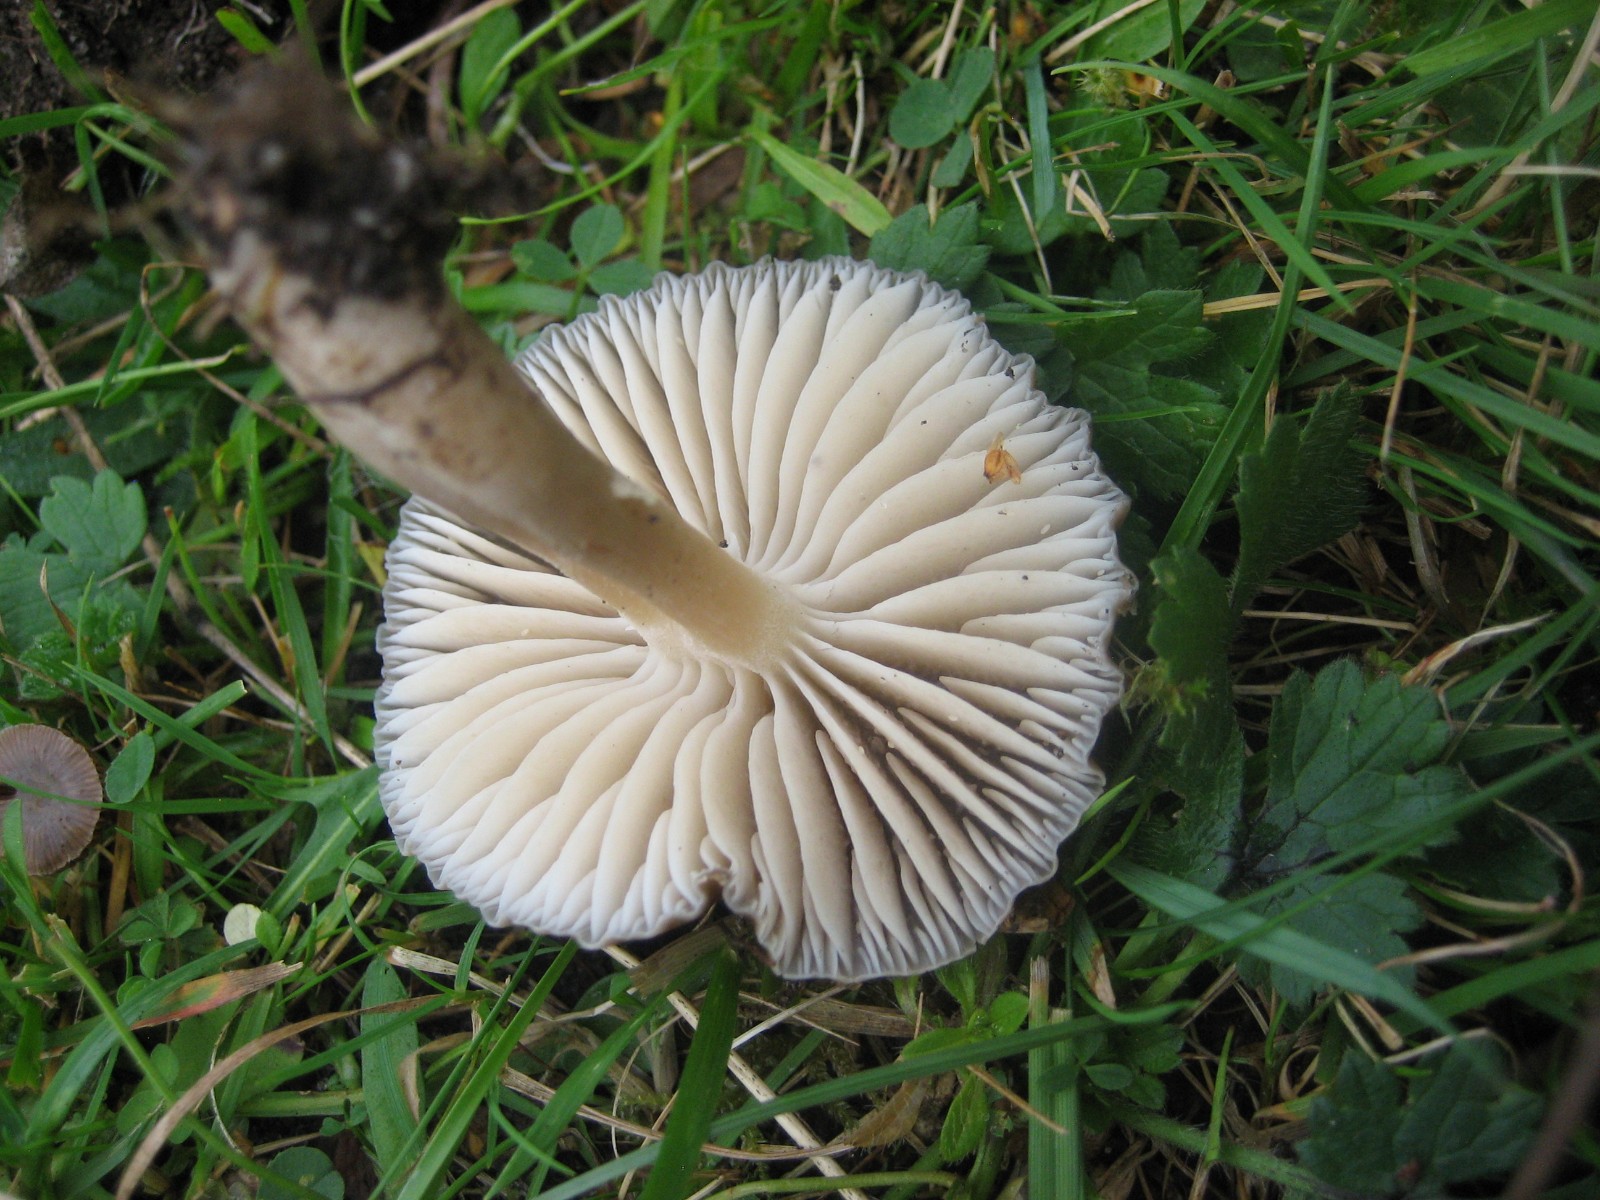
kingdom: Fungi
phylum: Basidiomycota
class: Agaricomycetes
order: Agaricales
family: Hygrophoraceae
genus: Neohygrocybe
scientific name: Neohygrocybe nitrata
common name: stinkende vokshat
